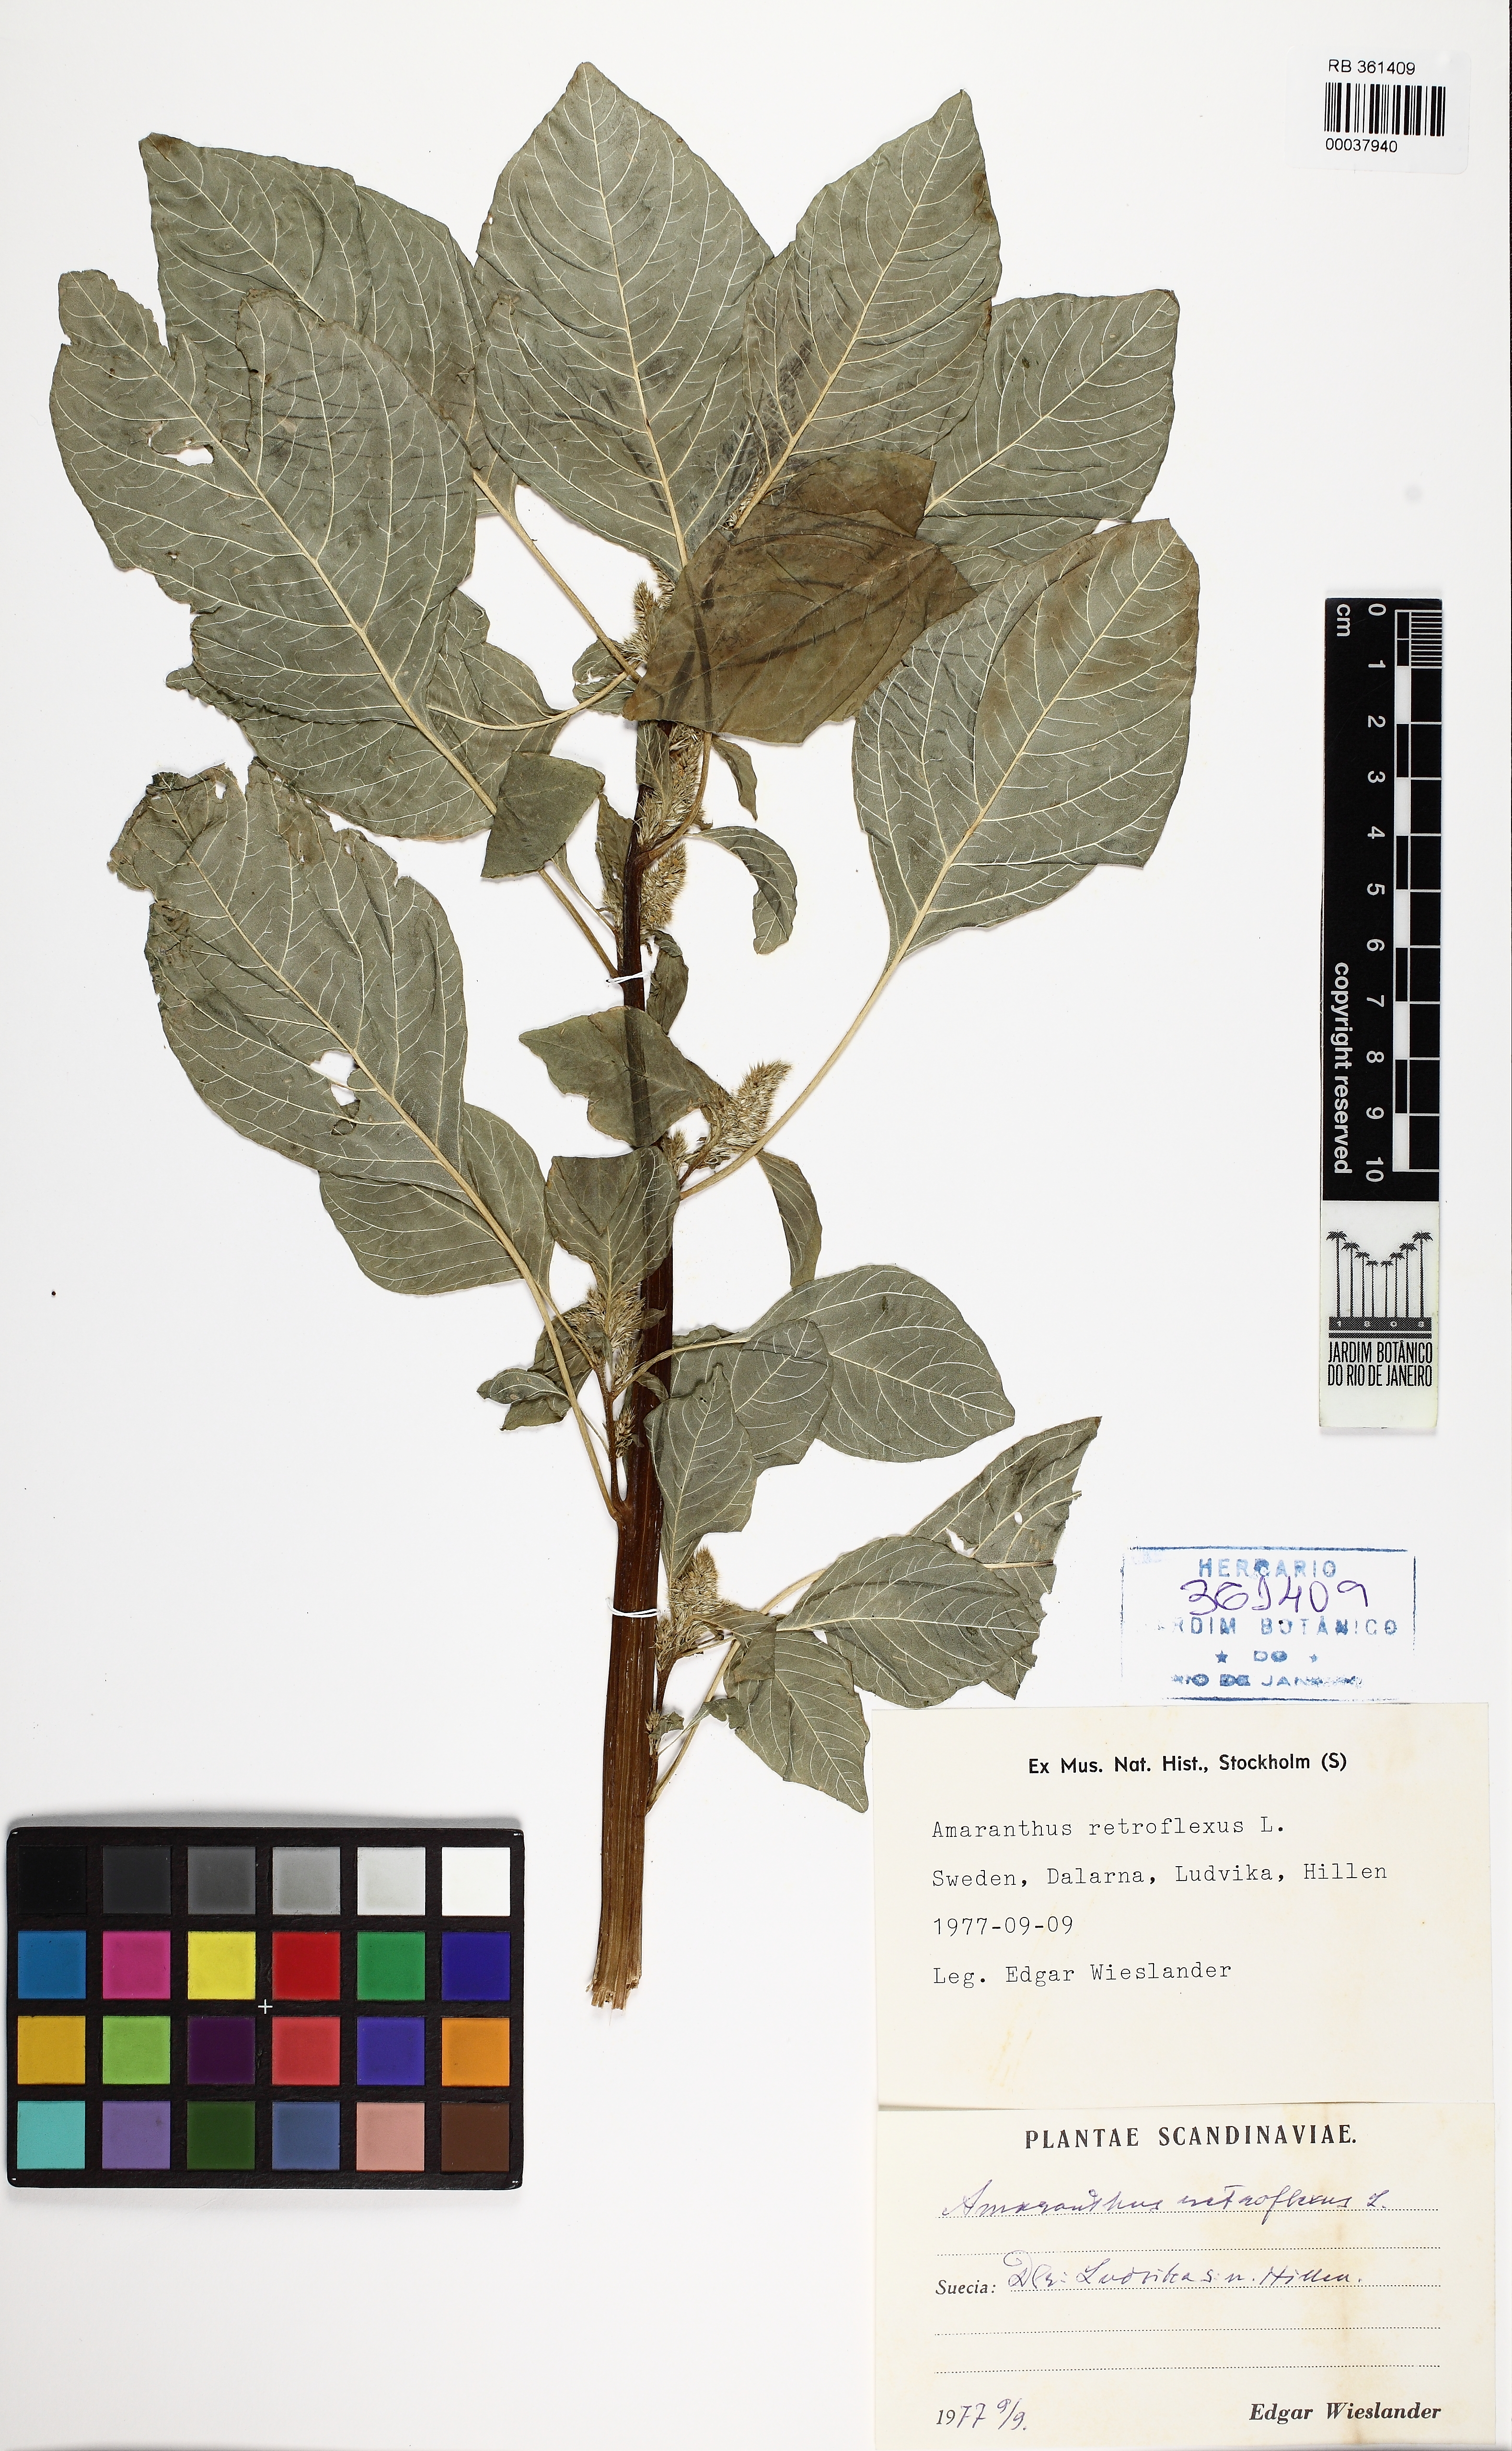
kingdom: Plantae
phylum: Tracheophyta
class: Magnoliopsida
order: Caryophyllales
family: Amaranthaceae
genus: Amaranthus
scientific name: Amaranthus retroflexus
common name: Redroot amaranth
